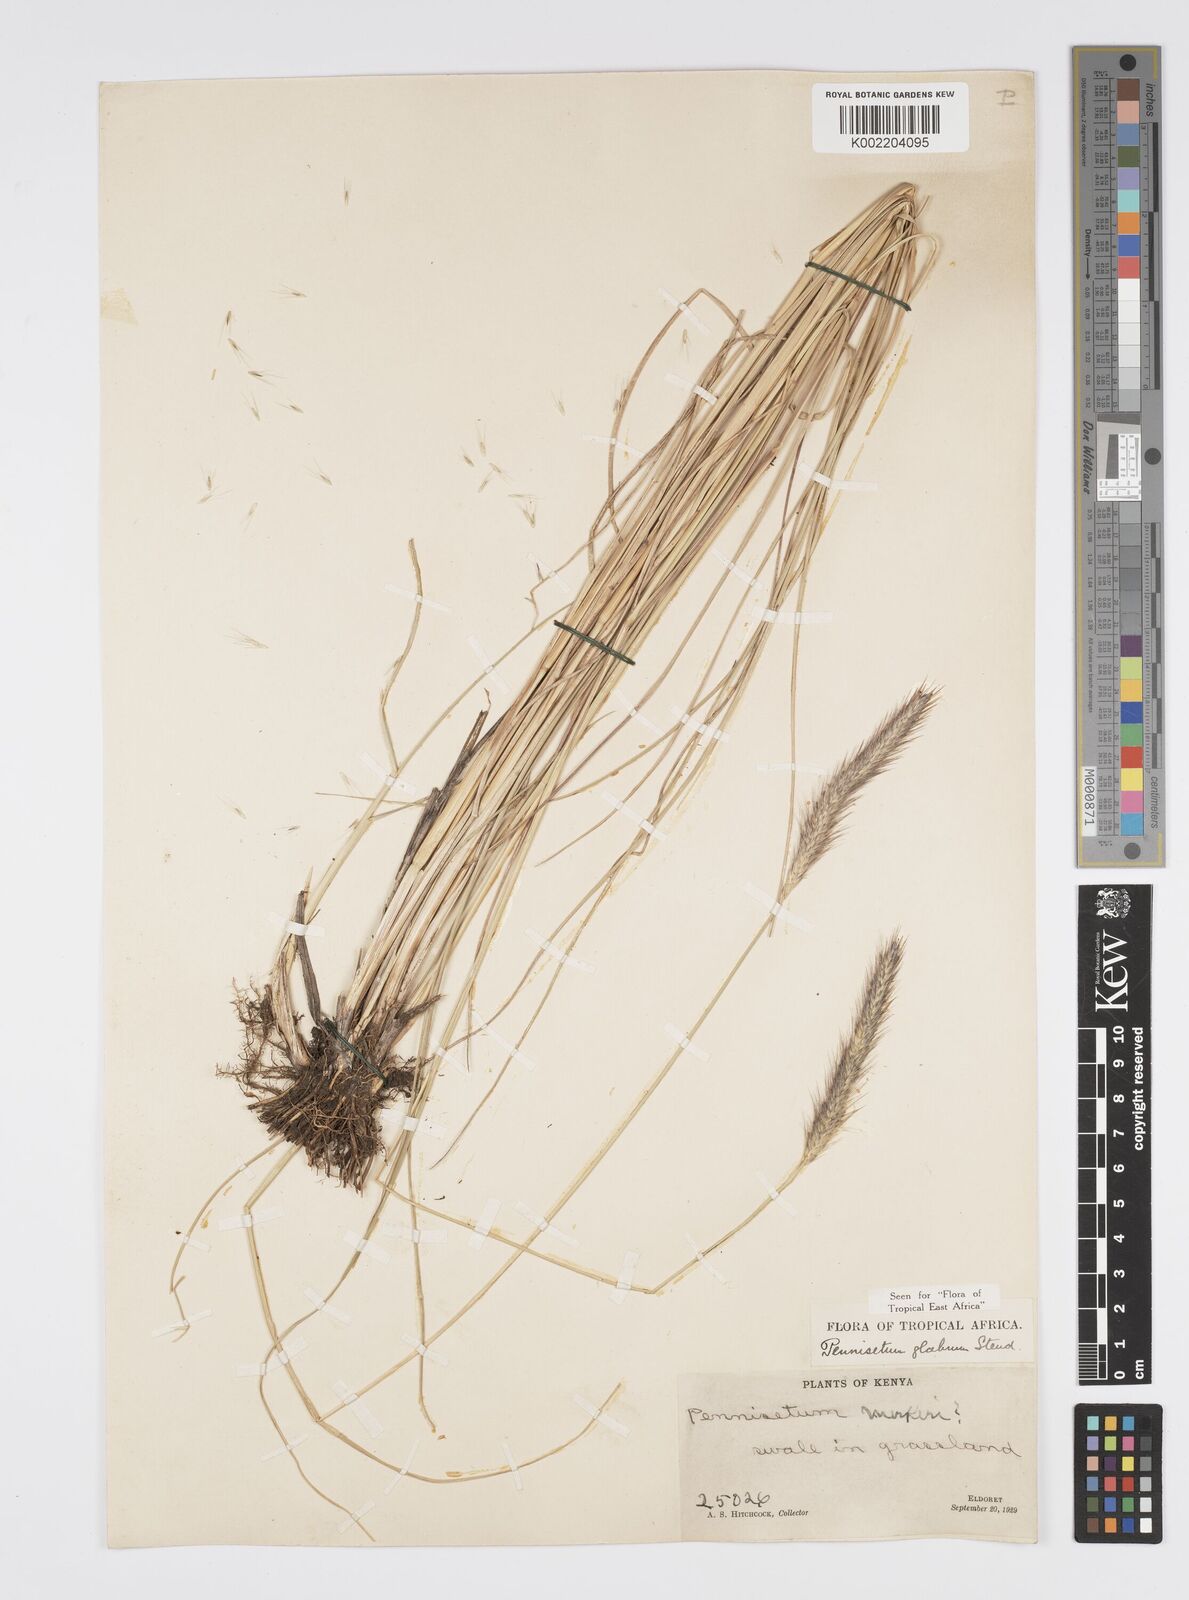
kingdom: Plantae
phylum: Tracheophyta
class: Liliopsida
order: Poales
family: Poaceae
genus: Cenchrus
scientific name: Cenchrus geniculatus
